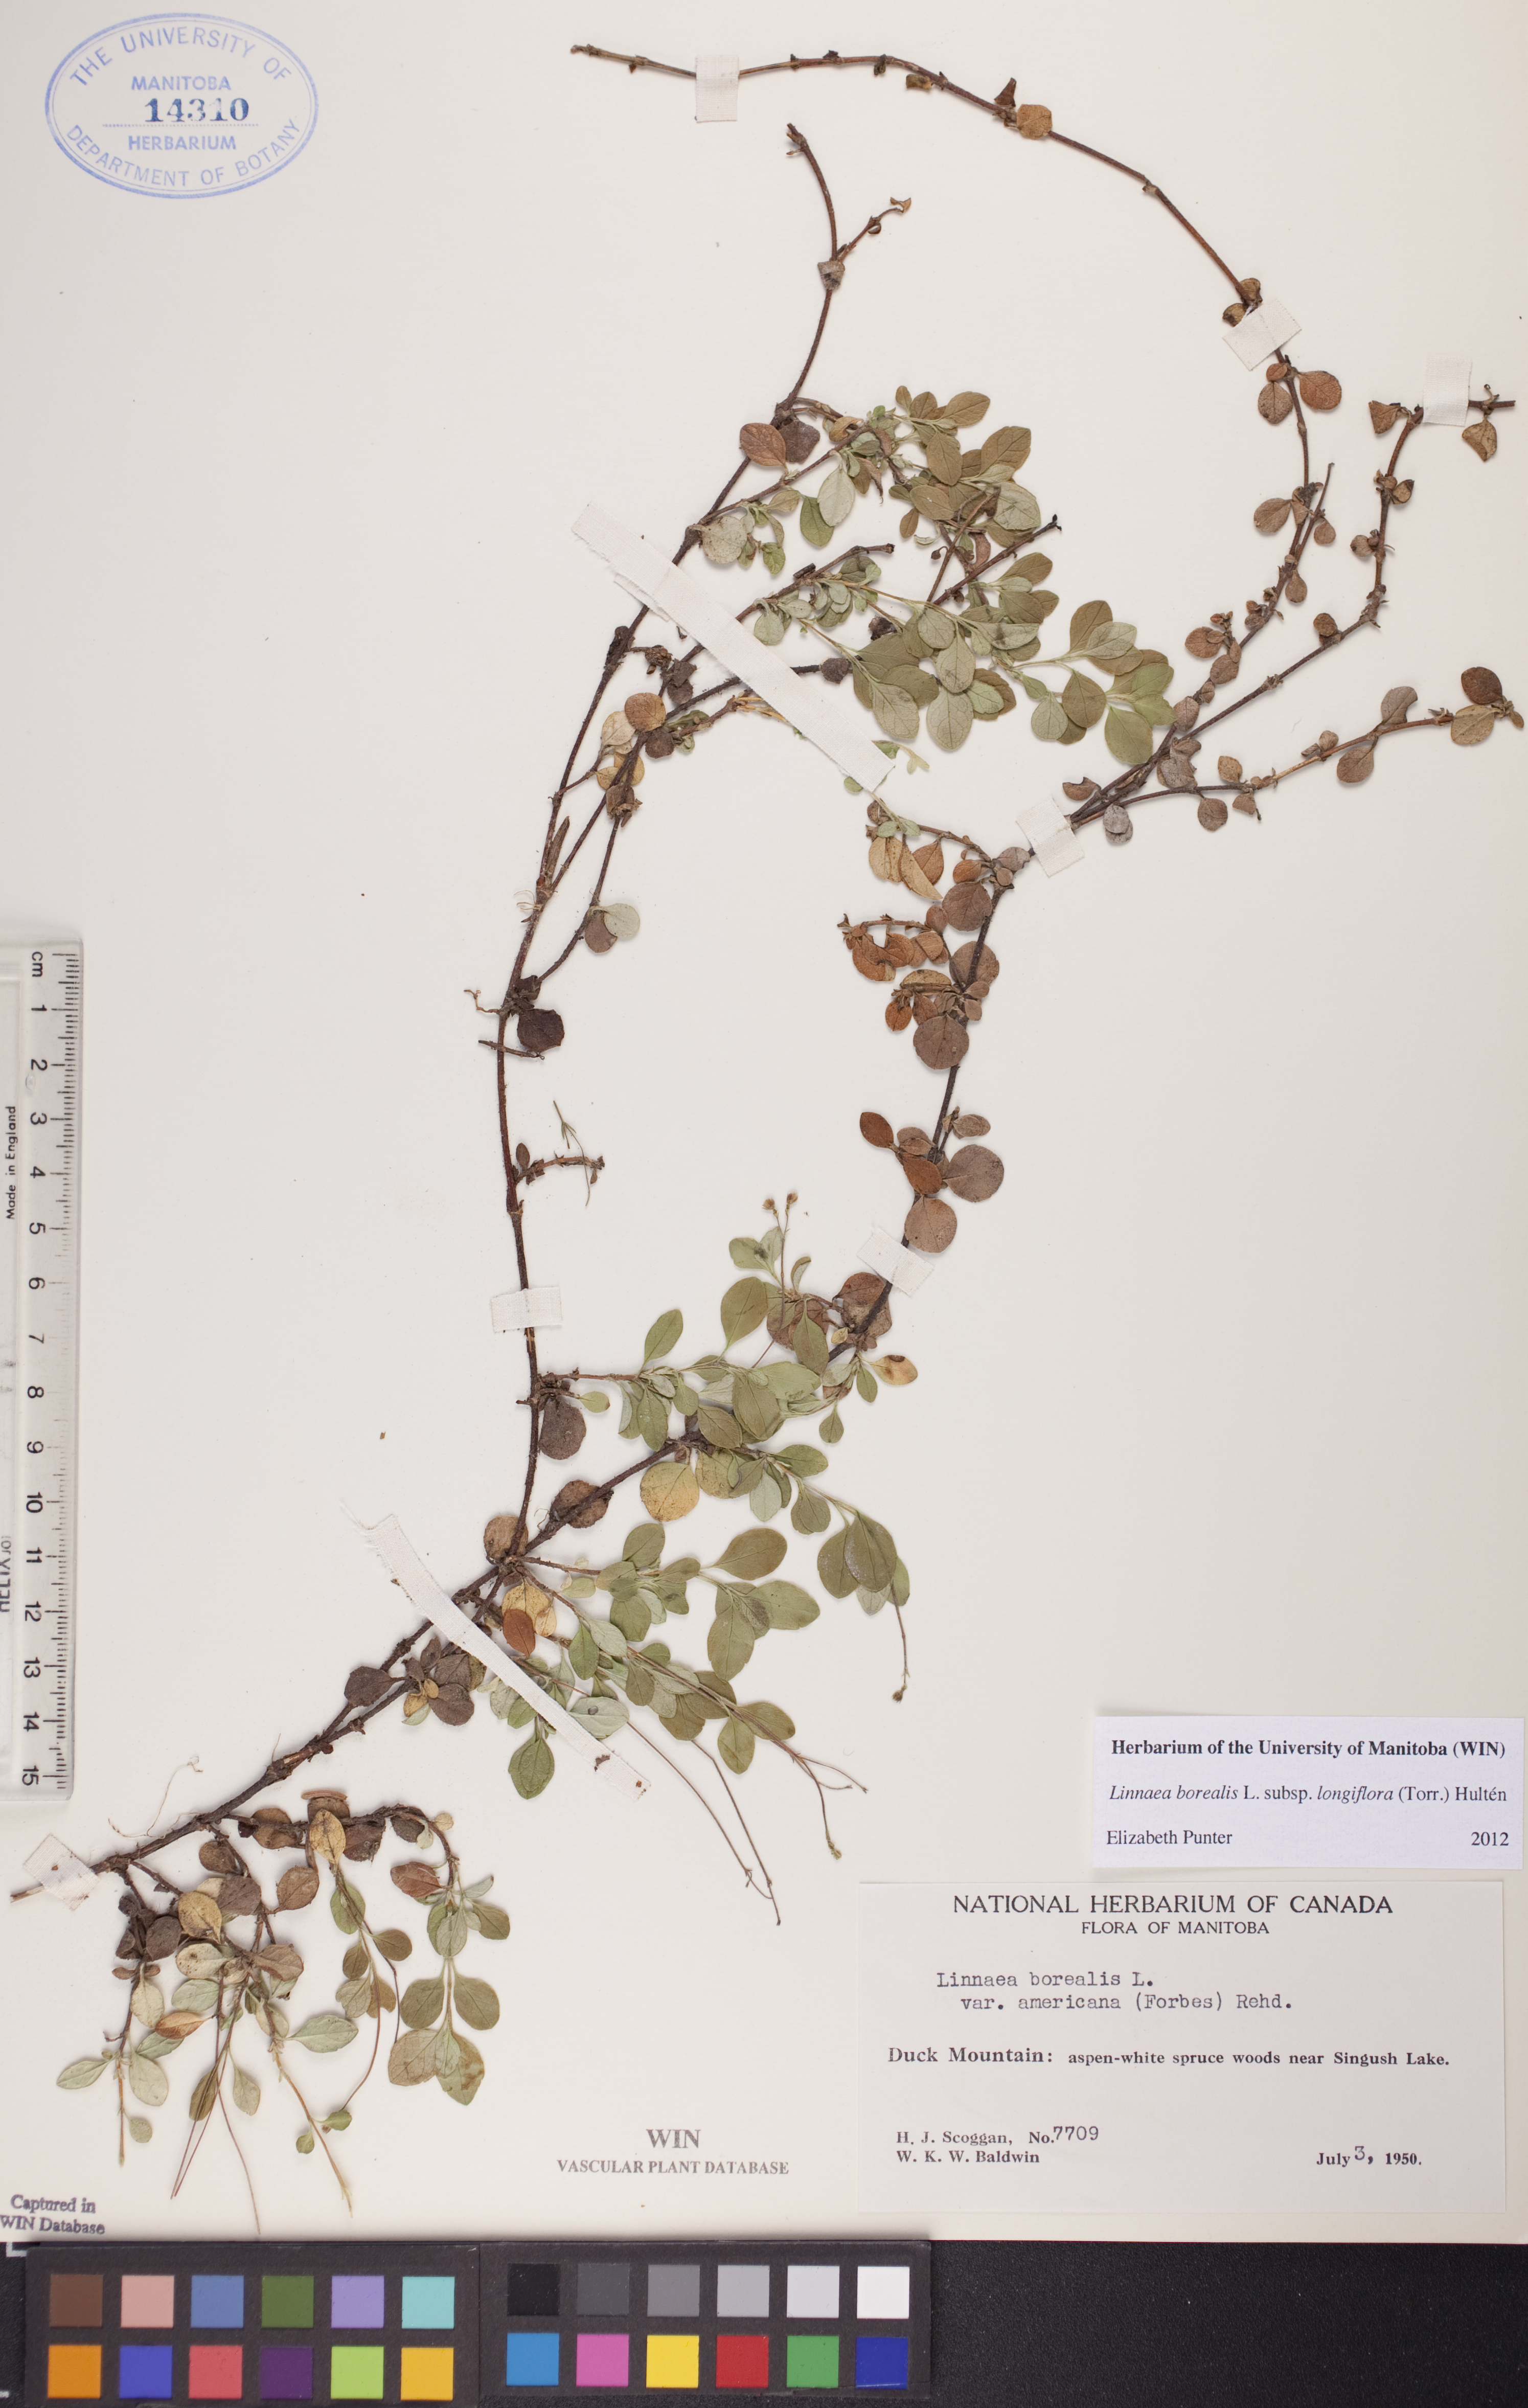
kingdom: Plantae
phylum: Tracheophyta
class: Magnoliopsida
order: Dipsacales
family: Caprifoliaceae
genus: Linnaea
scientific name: Linnaea borealis
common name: Twinflower
